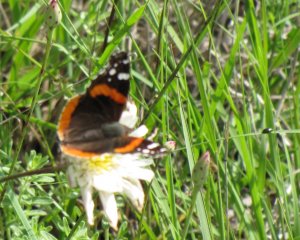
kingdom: Animalia
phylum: Arthropoda
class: Insecta
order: Lepidoptera
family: Nymphalidae
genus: Vanessa
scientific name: Vanessa atalanta
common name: Red Admiral
